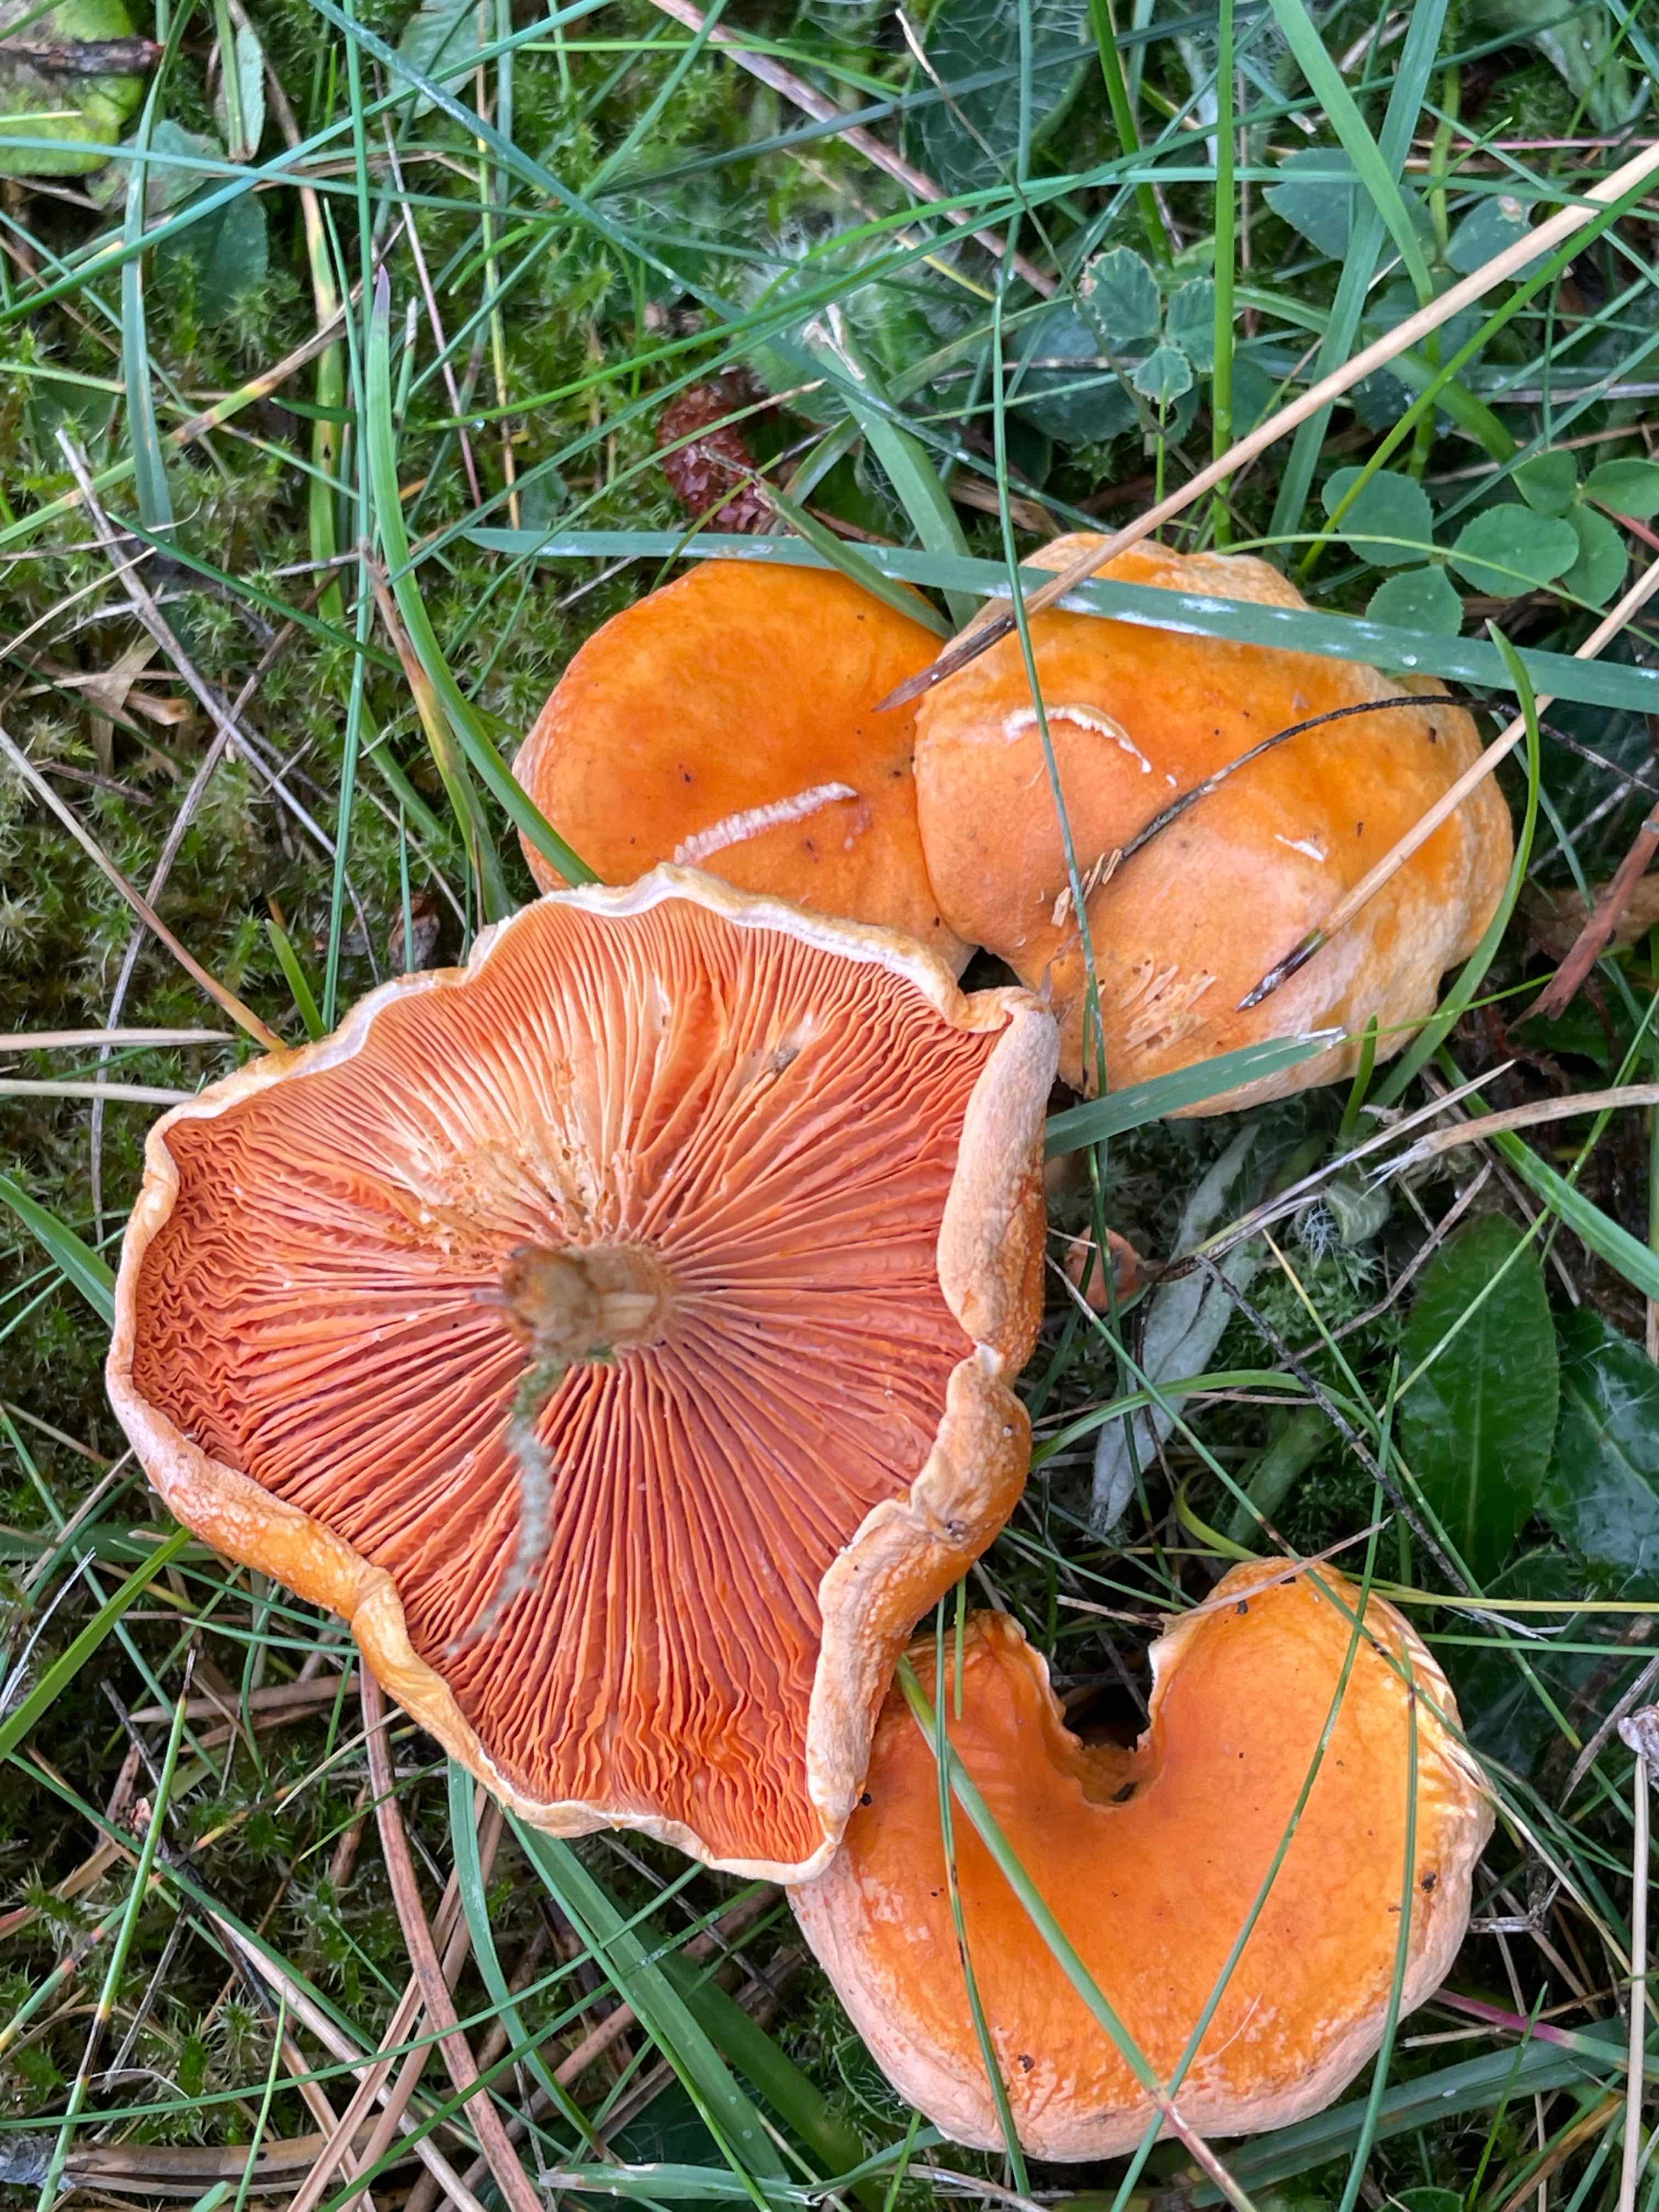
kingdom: Fungi
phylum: Basidiomycota
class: Agaricomycetes
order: Boletales
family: Hygrophoropsidaceae
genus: Hygrophoropsis
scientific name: Hygrophoropsis aurantiaca
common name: almindelig orangekantarel
